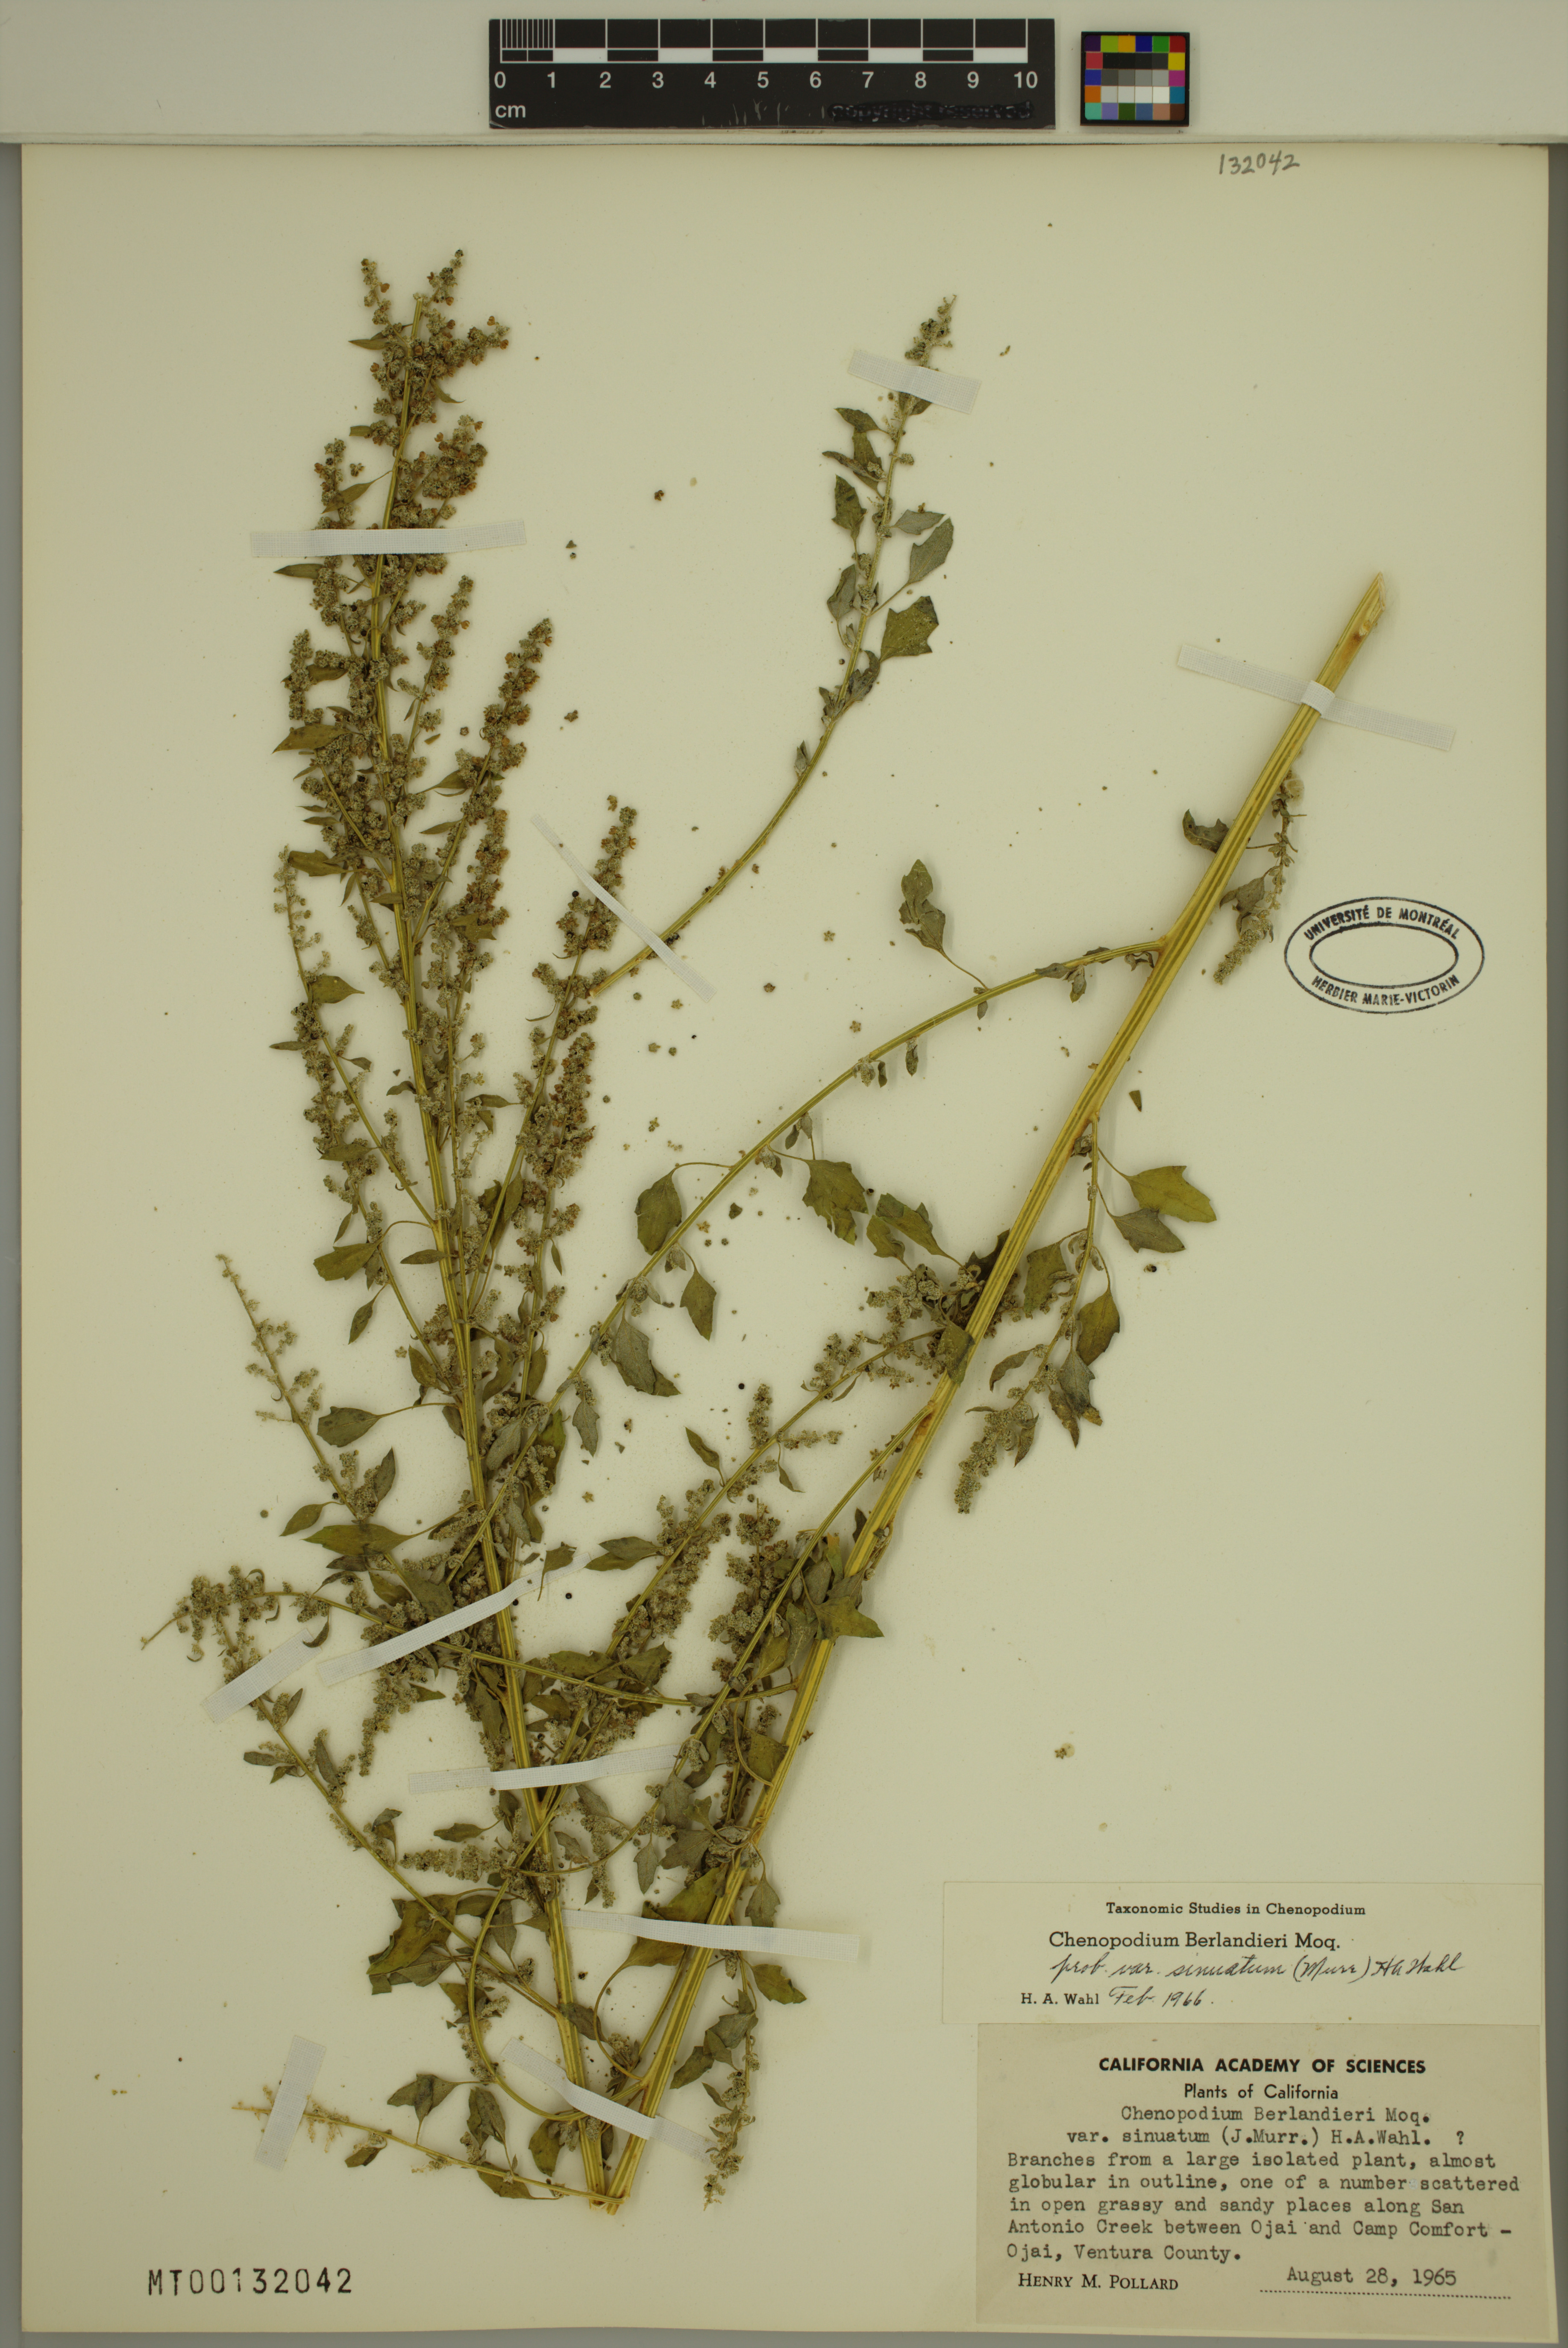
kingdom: Plantae
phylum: Tracheophyta
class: Magnoliopsida
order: Caryophyllales
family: Amaranthaceae
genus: Chenopodium
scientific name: Chenopodium berlandieri
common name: Pit-seed goosefoot
